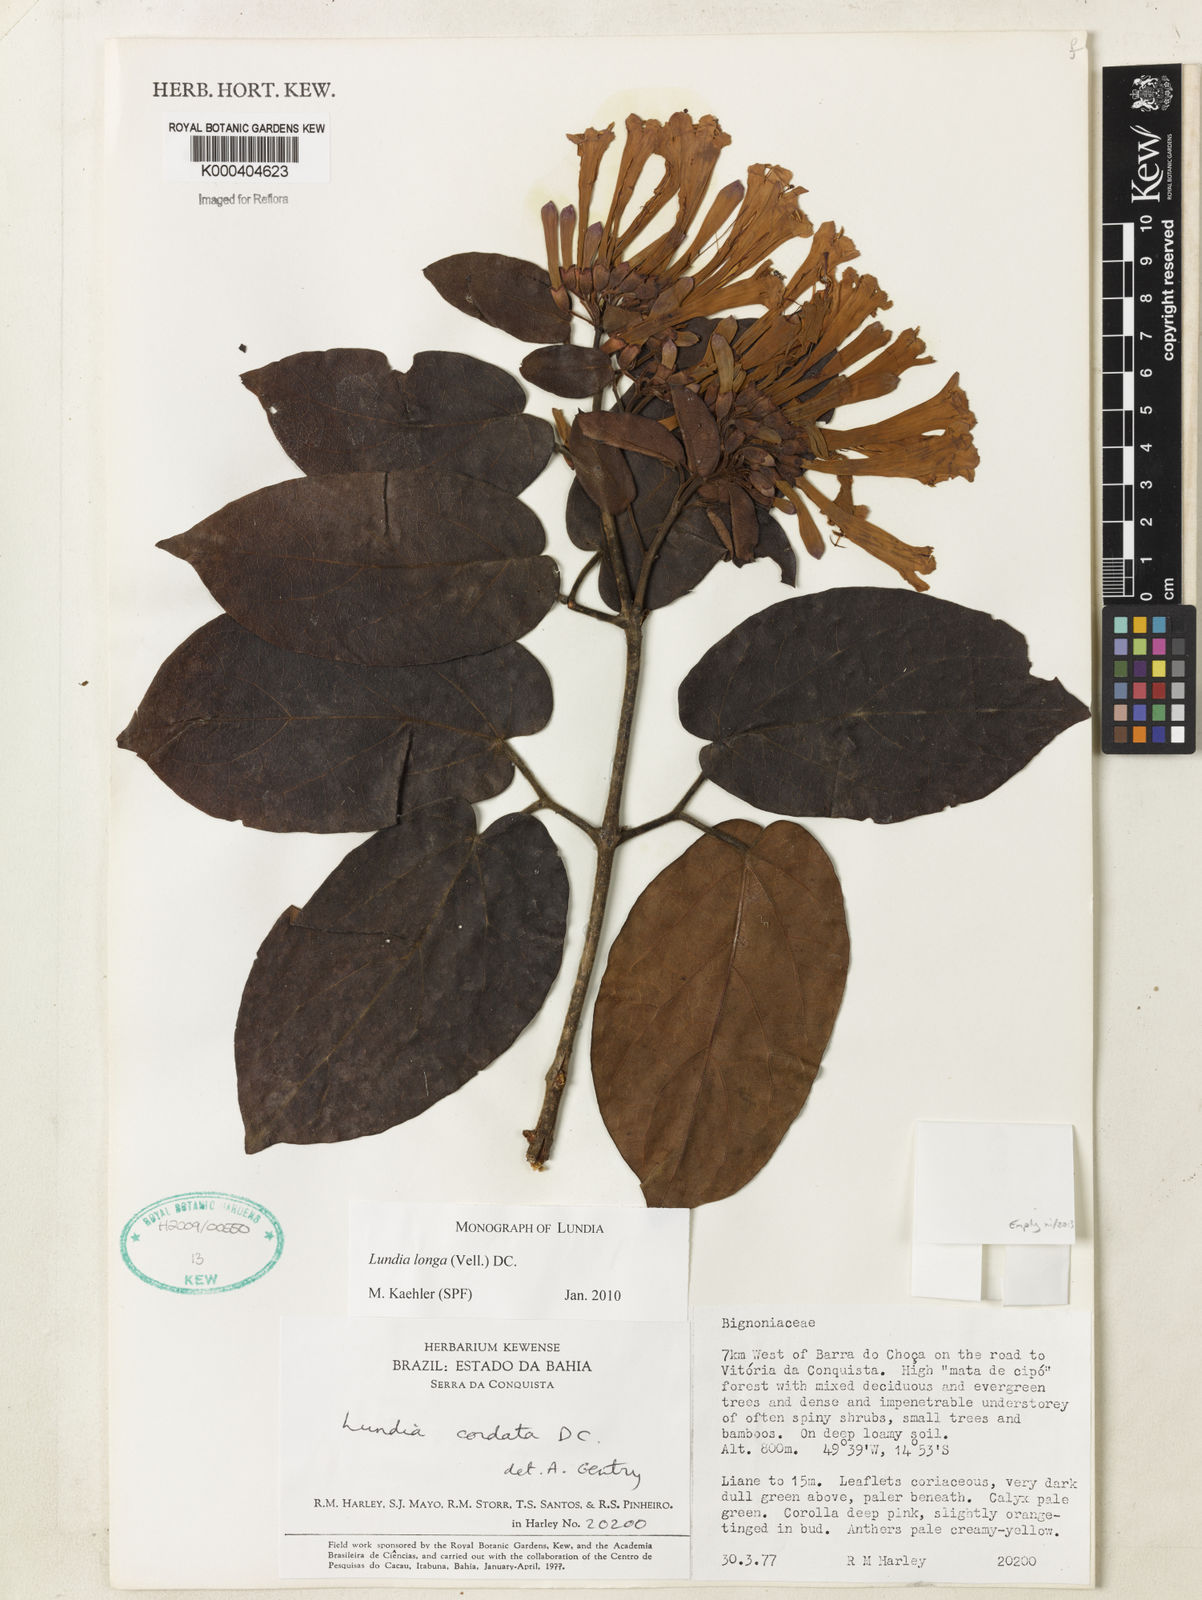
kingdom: Plantae
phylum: Tracheophyta
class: Magnoliopsida
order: Lamiales
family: Bignoniaceae
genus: Lundia
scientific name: Lundia longa
